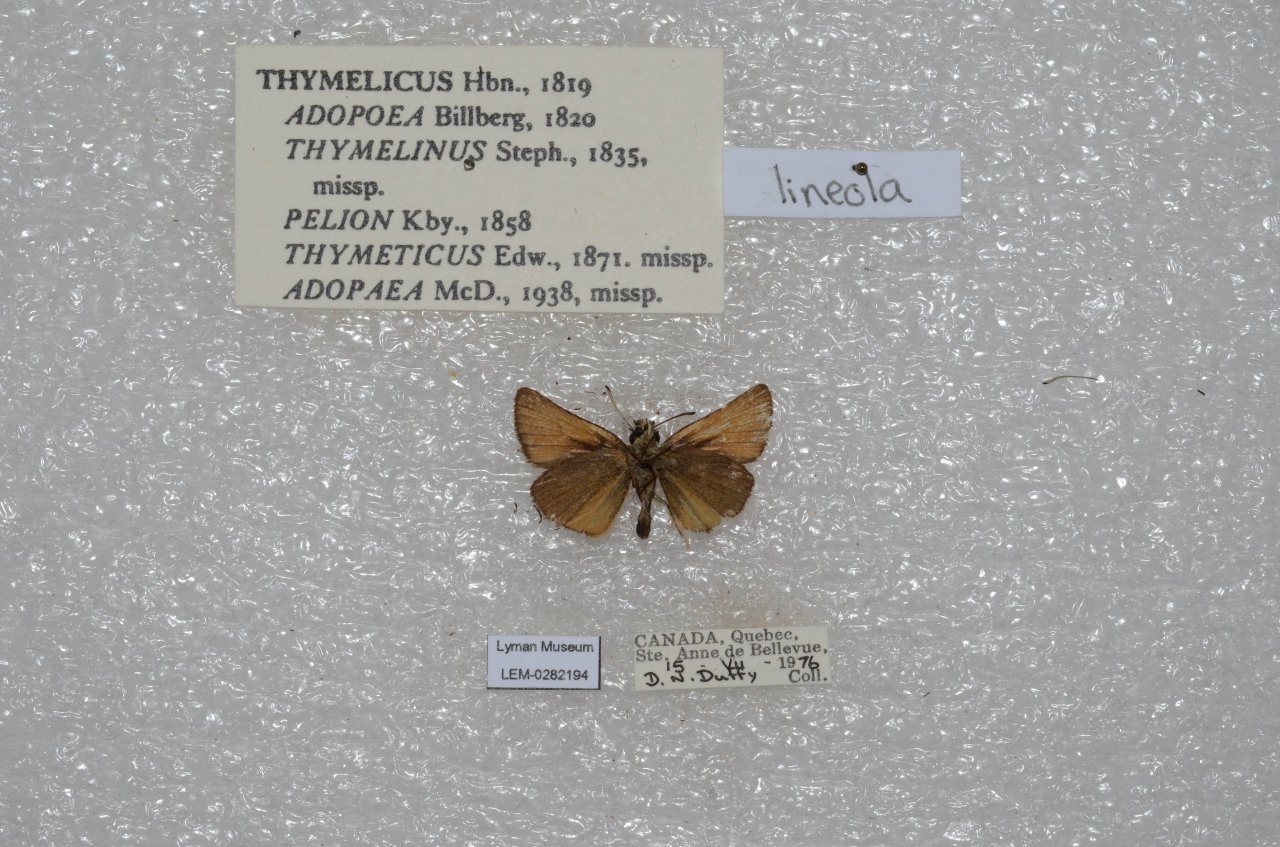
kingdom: Animalia
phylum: Arthropoda
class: Insecta
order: Lepidoptera
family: Hesperiidae
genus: Thymelicus
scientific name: Thymelicus lineola
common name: European Skipper
